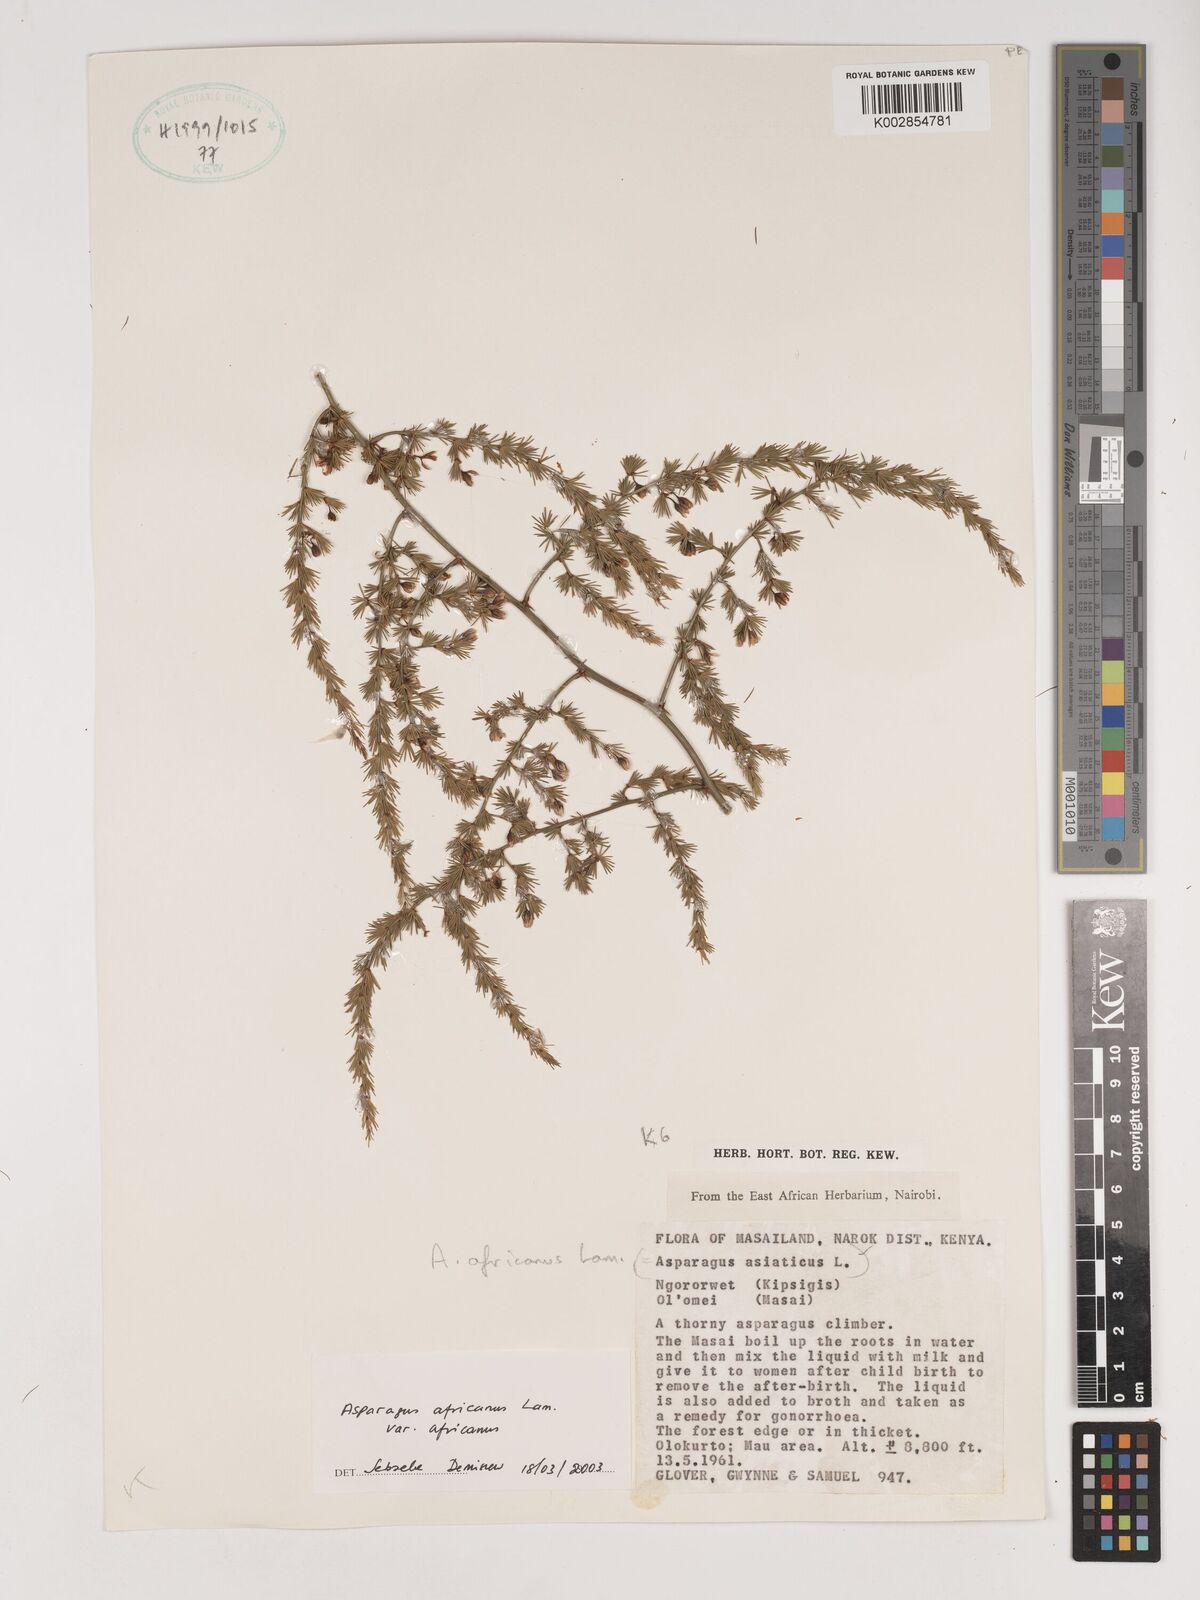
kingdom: Plantae
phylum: Tracheophyta
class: Liliopsida
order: Asparagales
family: Asparagaceae
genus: Asparagus
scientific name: Asparagus africanus
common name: Asparagus-fern
